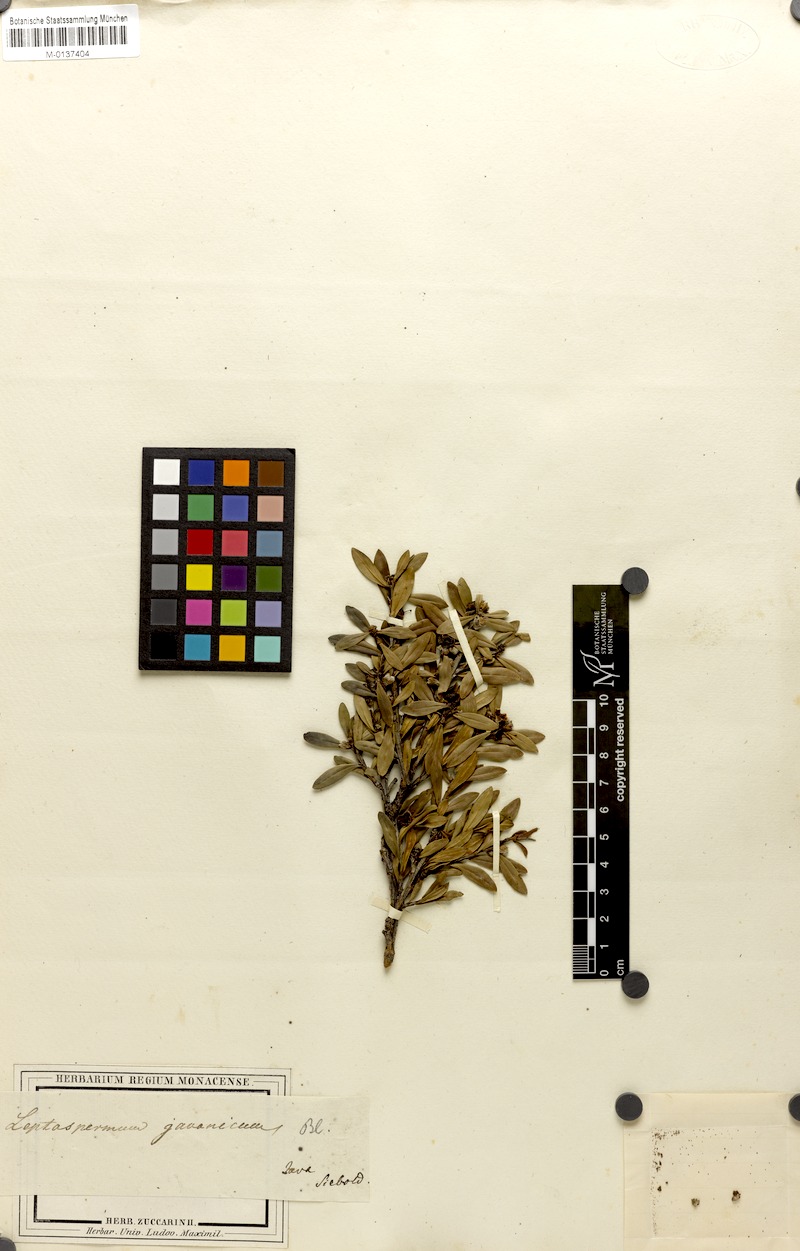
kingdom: Plantae
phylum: Tracheophyta
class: Magnoliopsida
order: Myrtales
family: Myrtaceae
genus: Leptospermum
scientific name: Leptospermum javanicum
